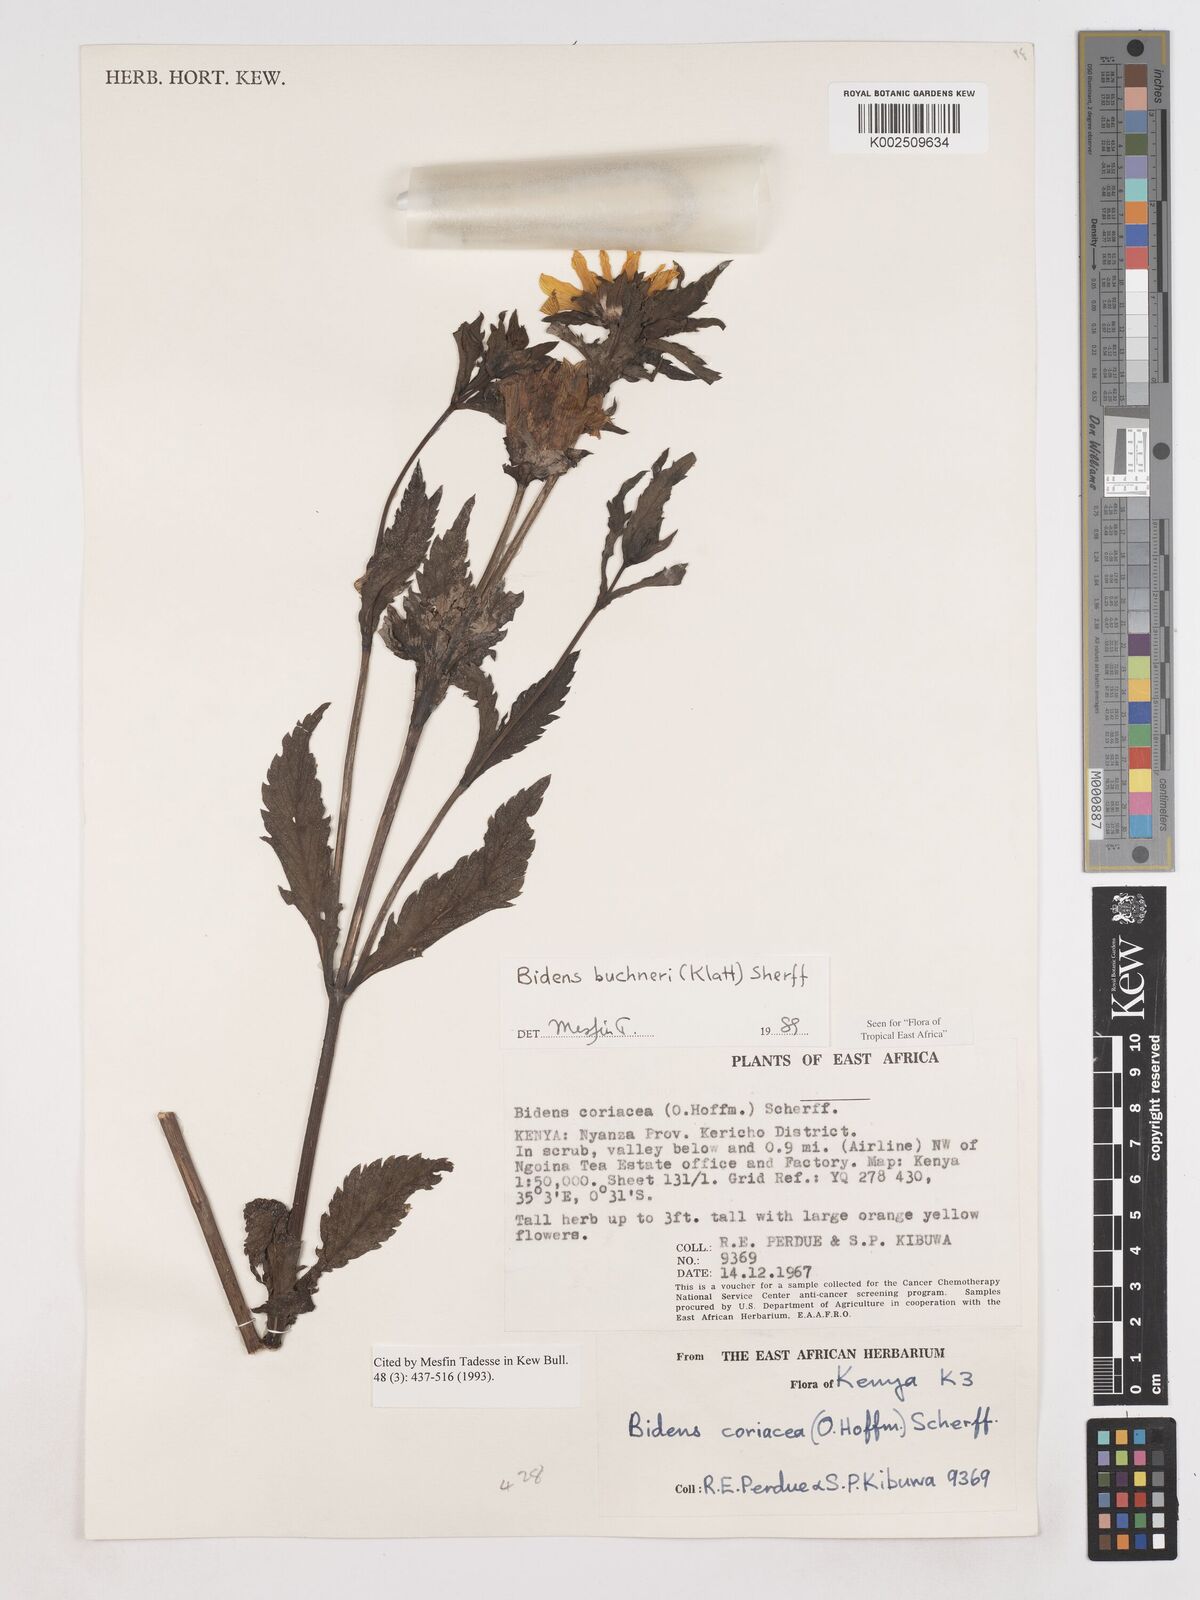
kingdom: Plantae
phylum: Tracheophyta
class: Magnoliopsida
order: Asterales
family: Asteraceae
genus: Bidens
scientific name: Bidens buchneri
